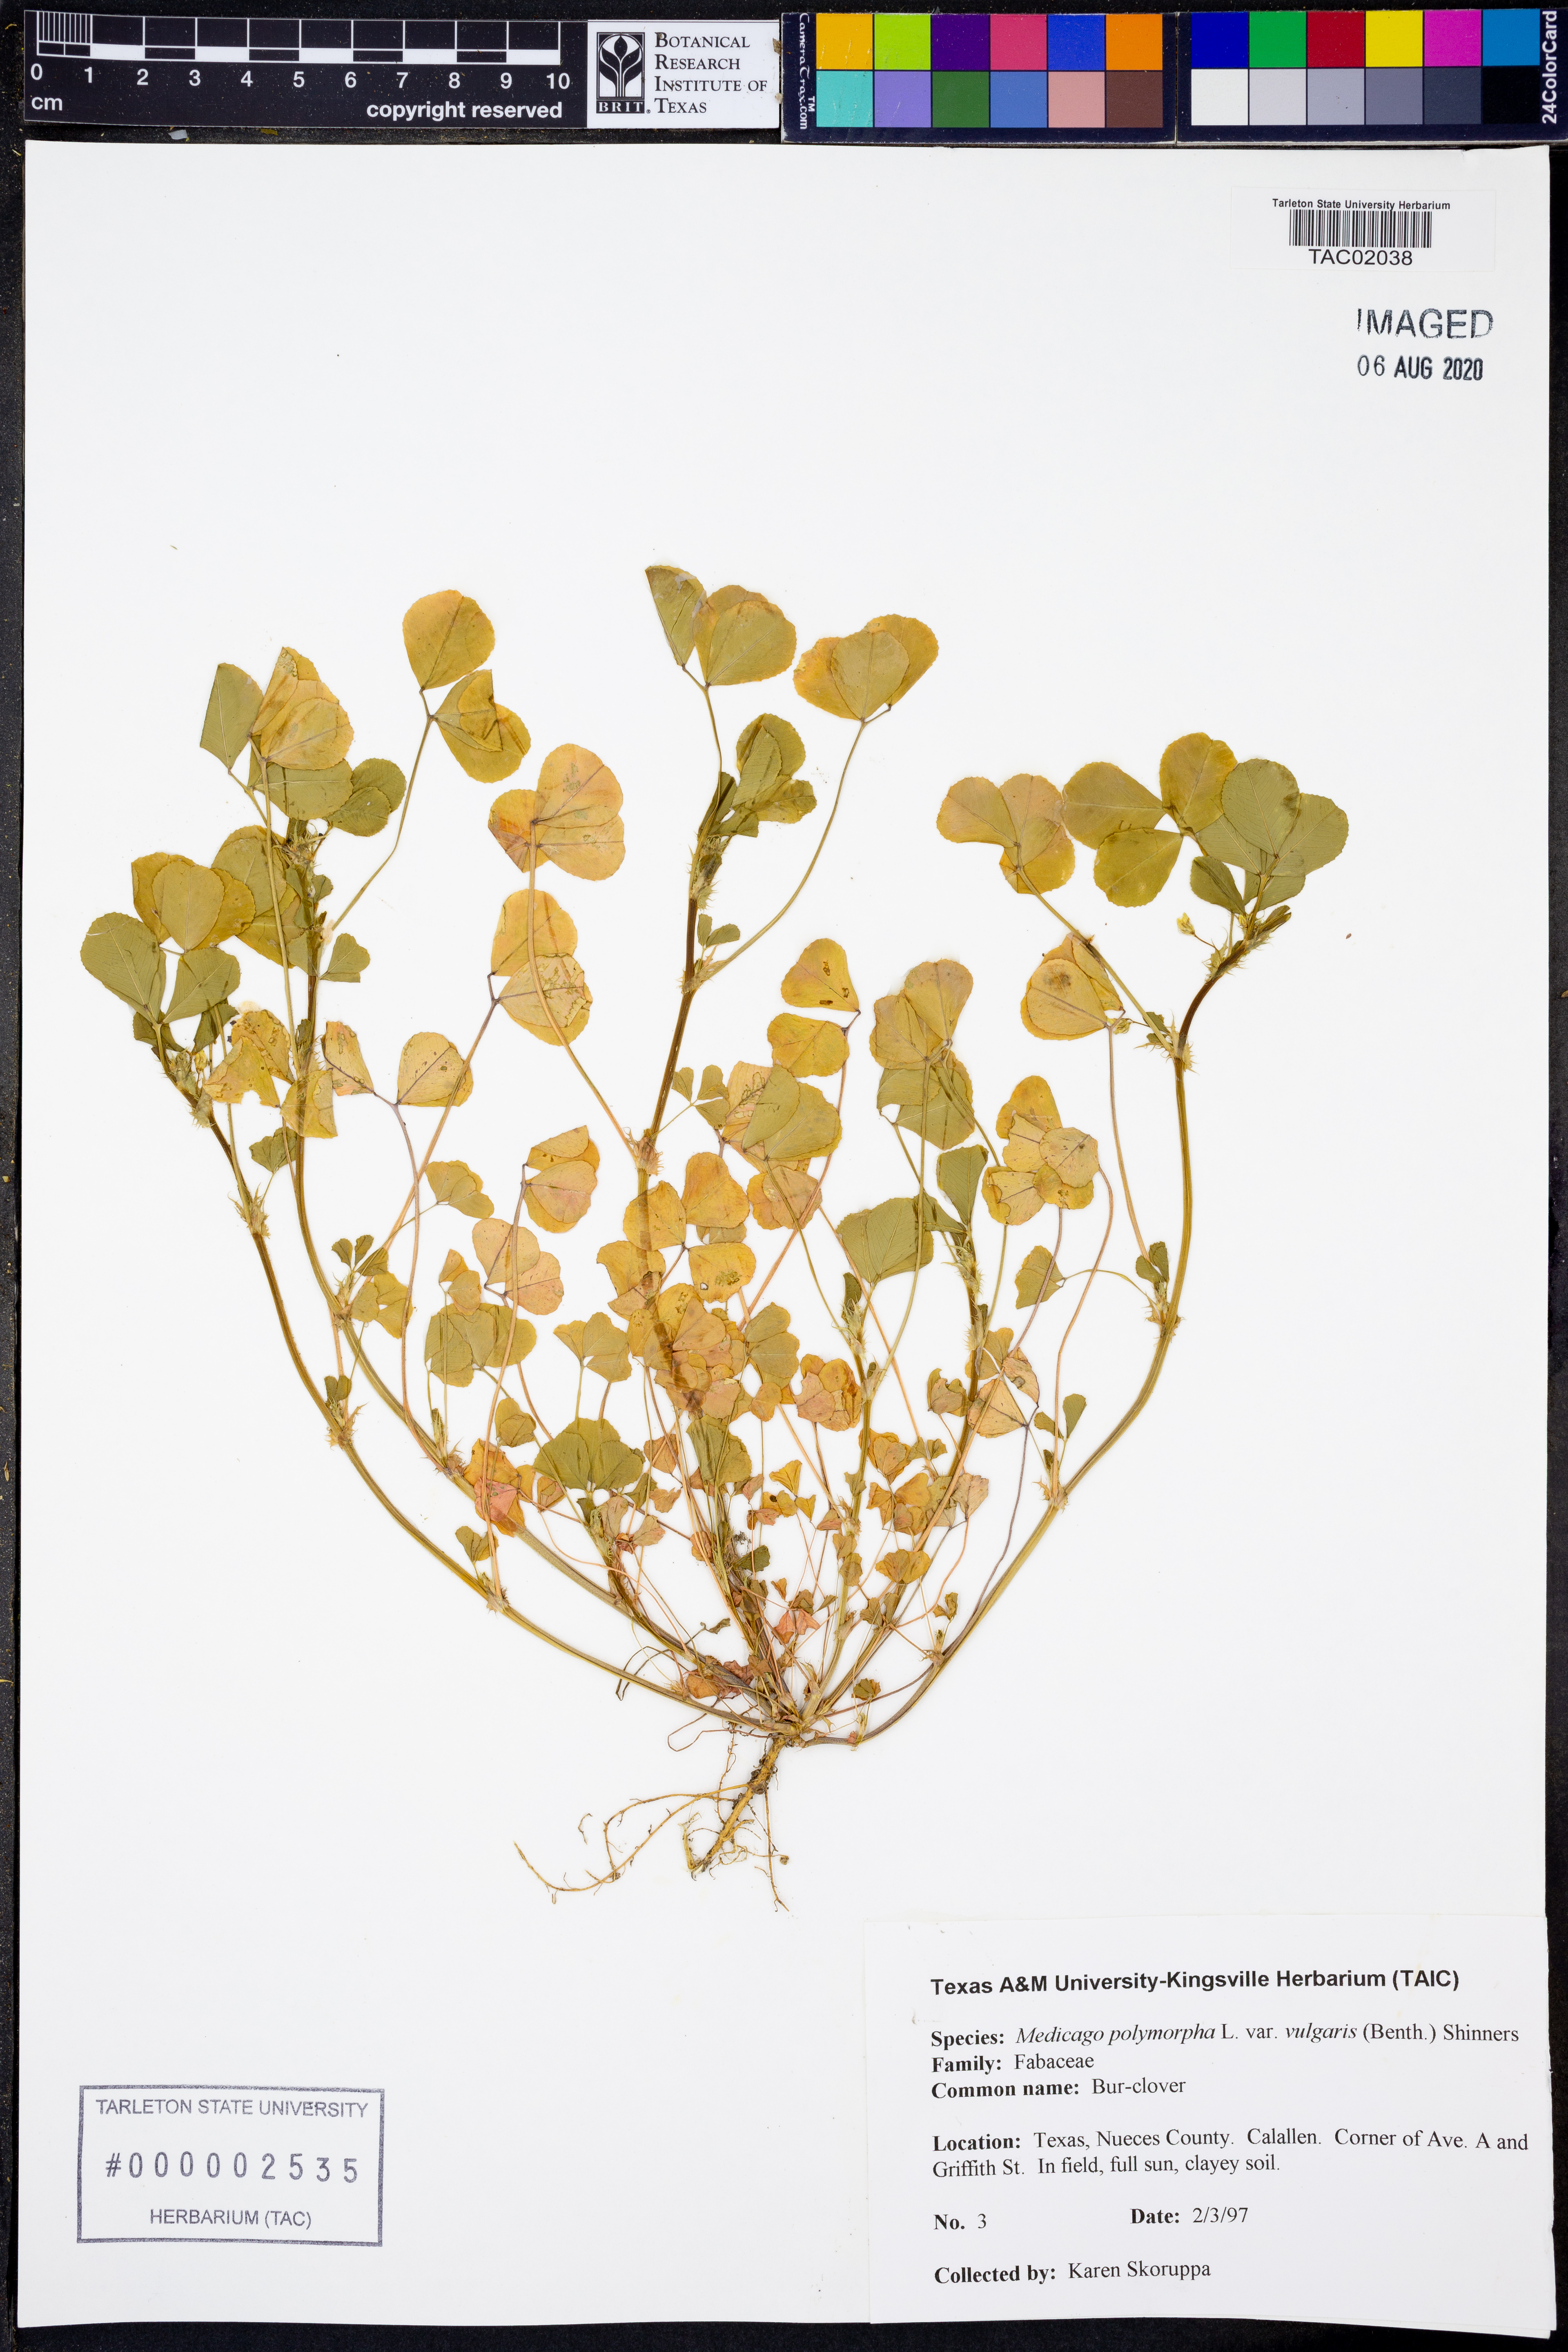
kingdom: Plantae
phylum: Tracheophyta
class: Magnoliopsida
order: Fabales
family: Fabaceae
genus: Medicago
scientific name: Medicago polymorpha
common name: Burclover
